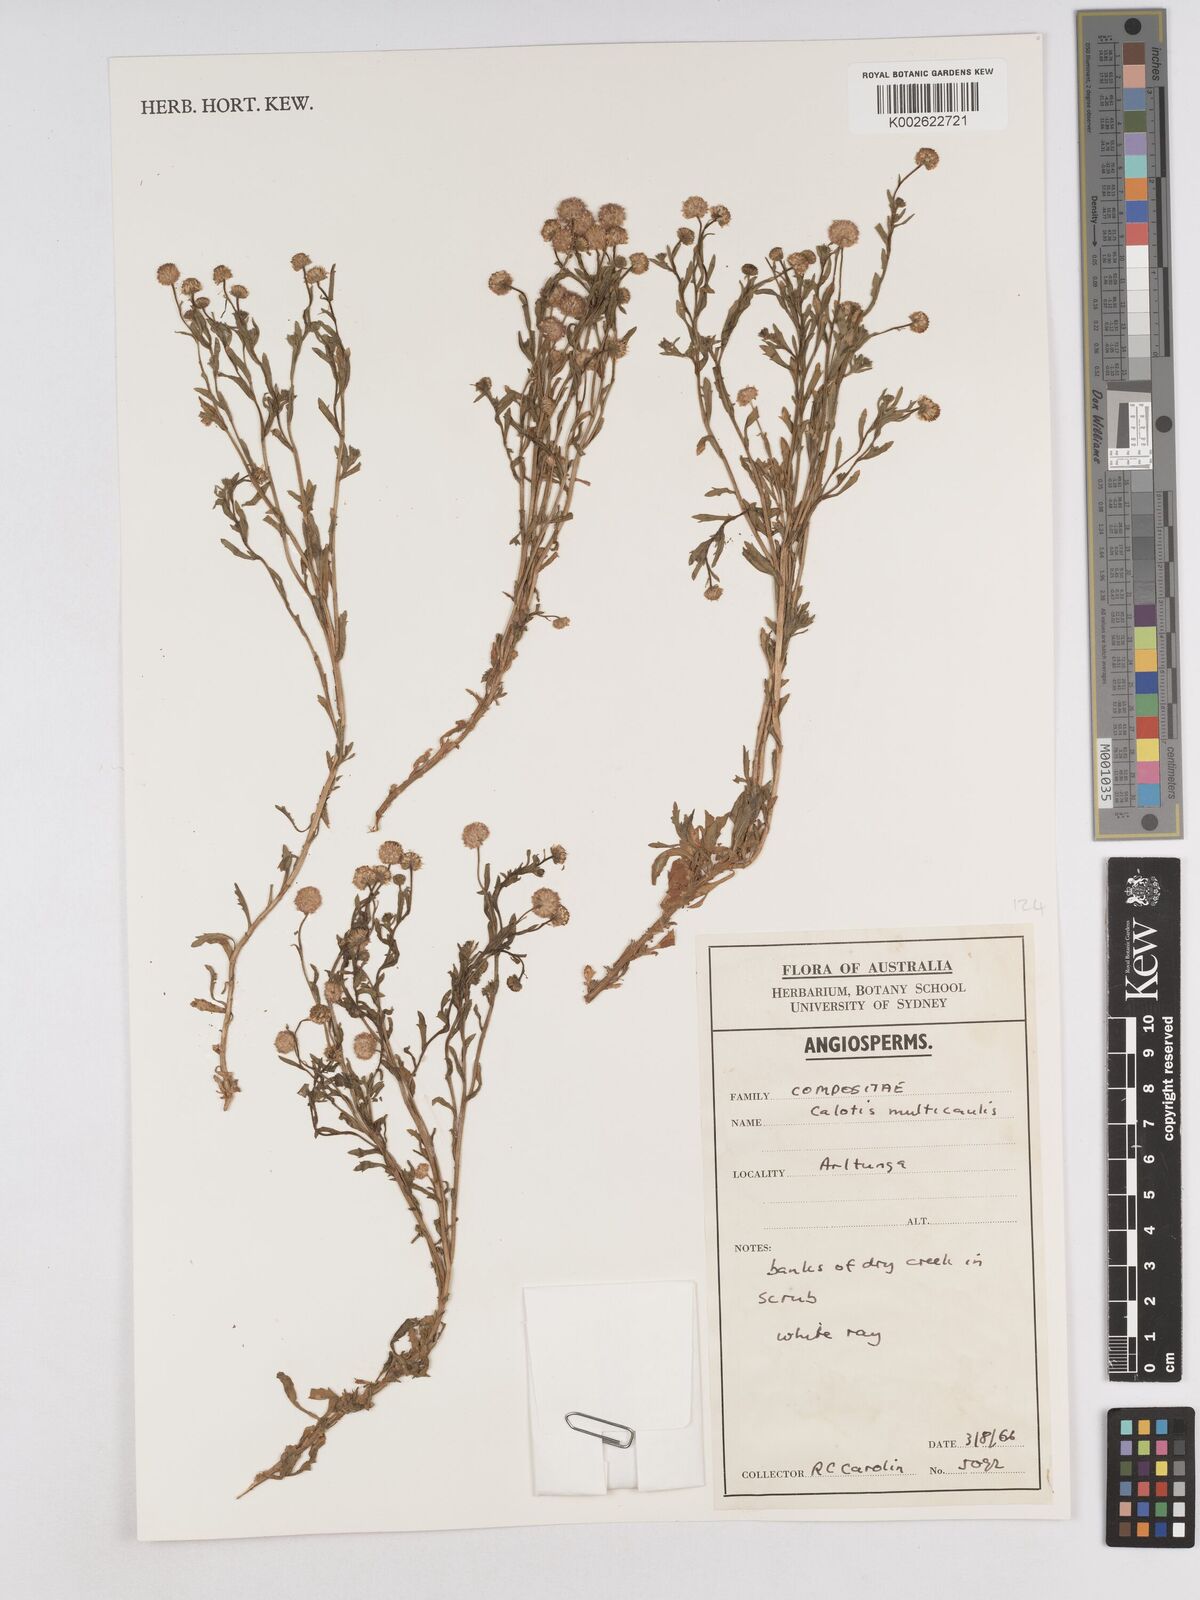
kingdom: Plantae
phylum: Tracheophyta
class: Magnoliopsida
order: Asterales
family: Asteraceae
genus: Calotis
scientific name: Calotis multicaulis
